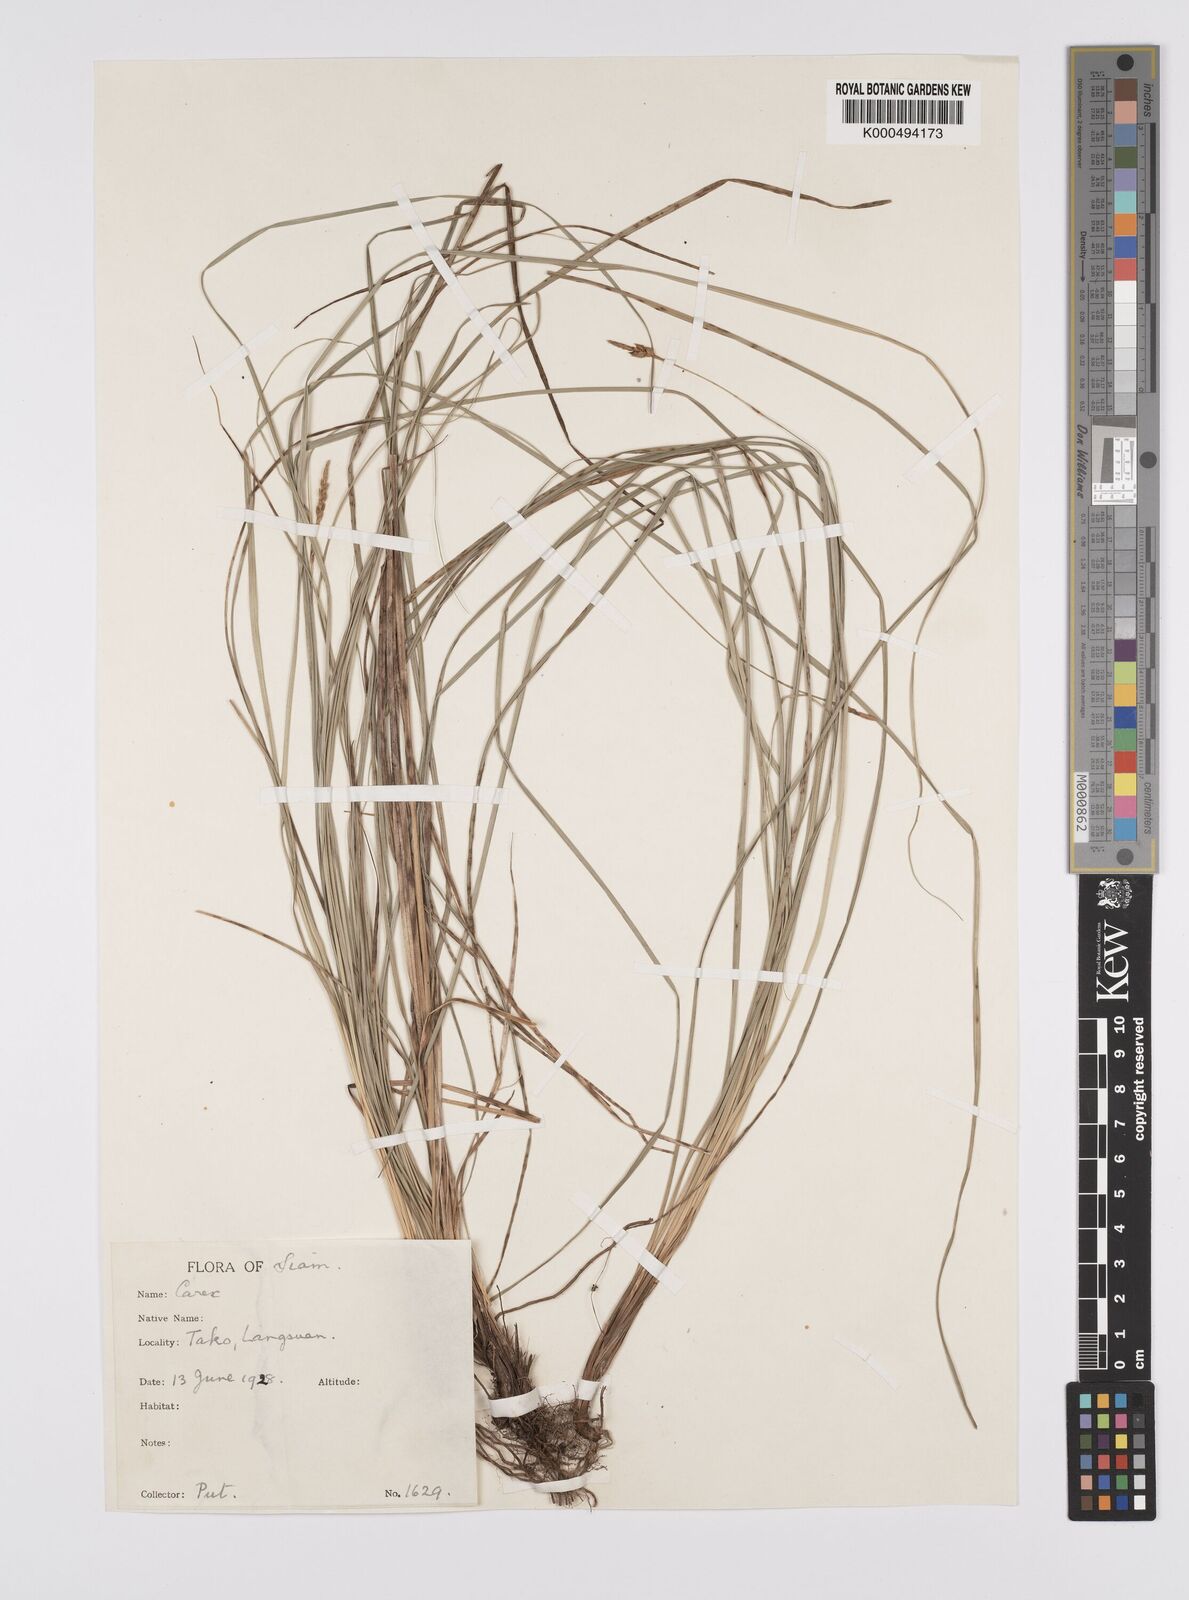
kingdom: Plantae
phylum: Tracheophyta
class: Liliopsida
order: Poales
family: Cyperaceae
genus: Carex
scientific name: Carex speciosa
